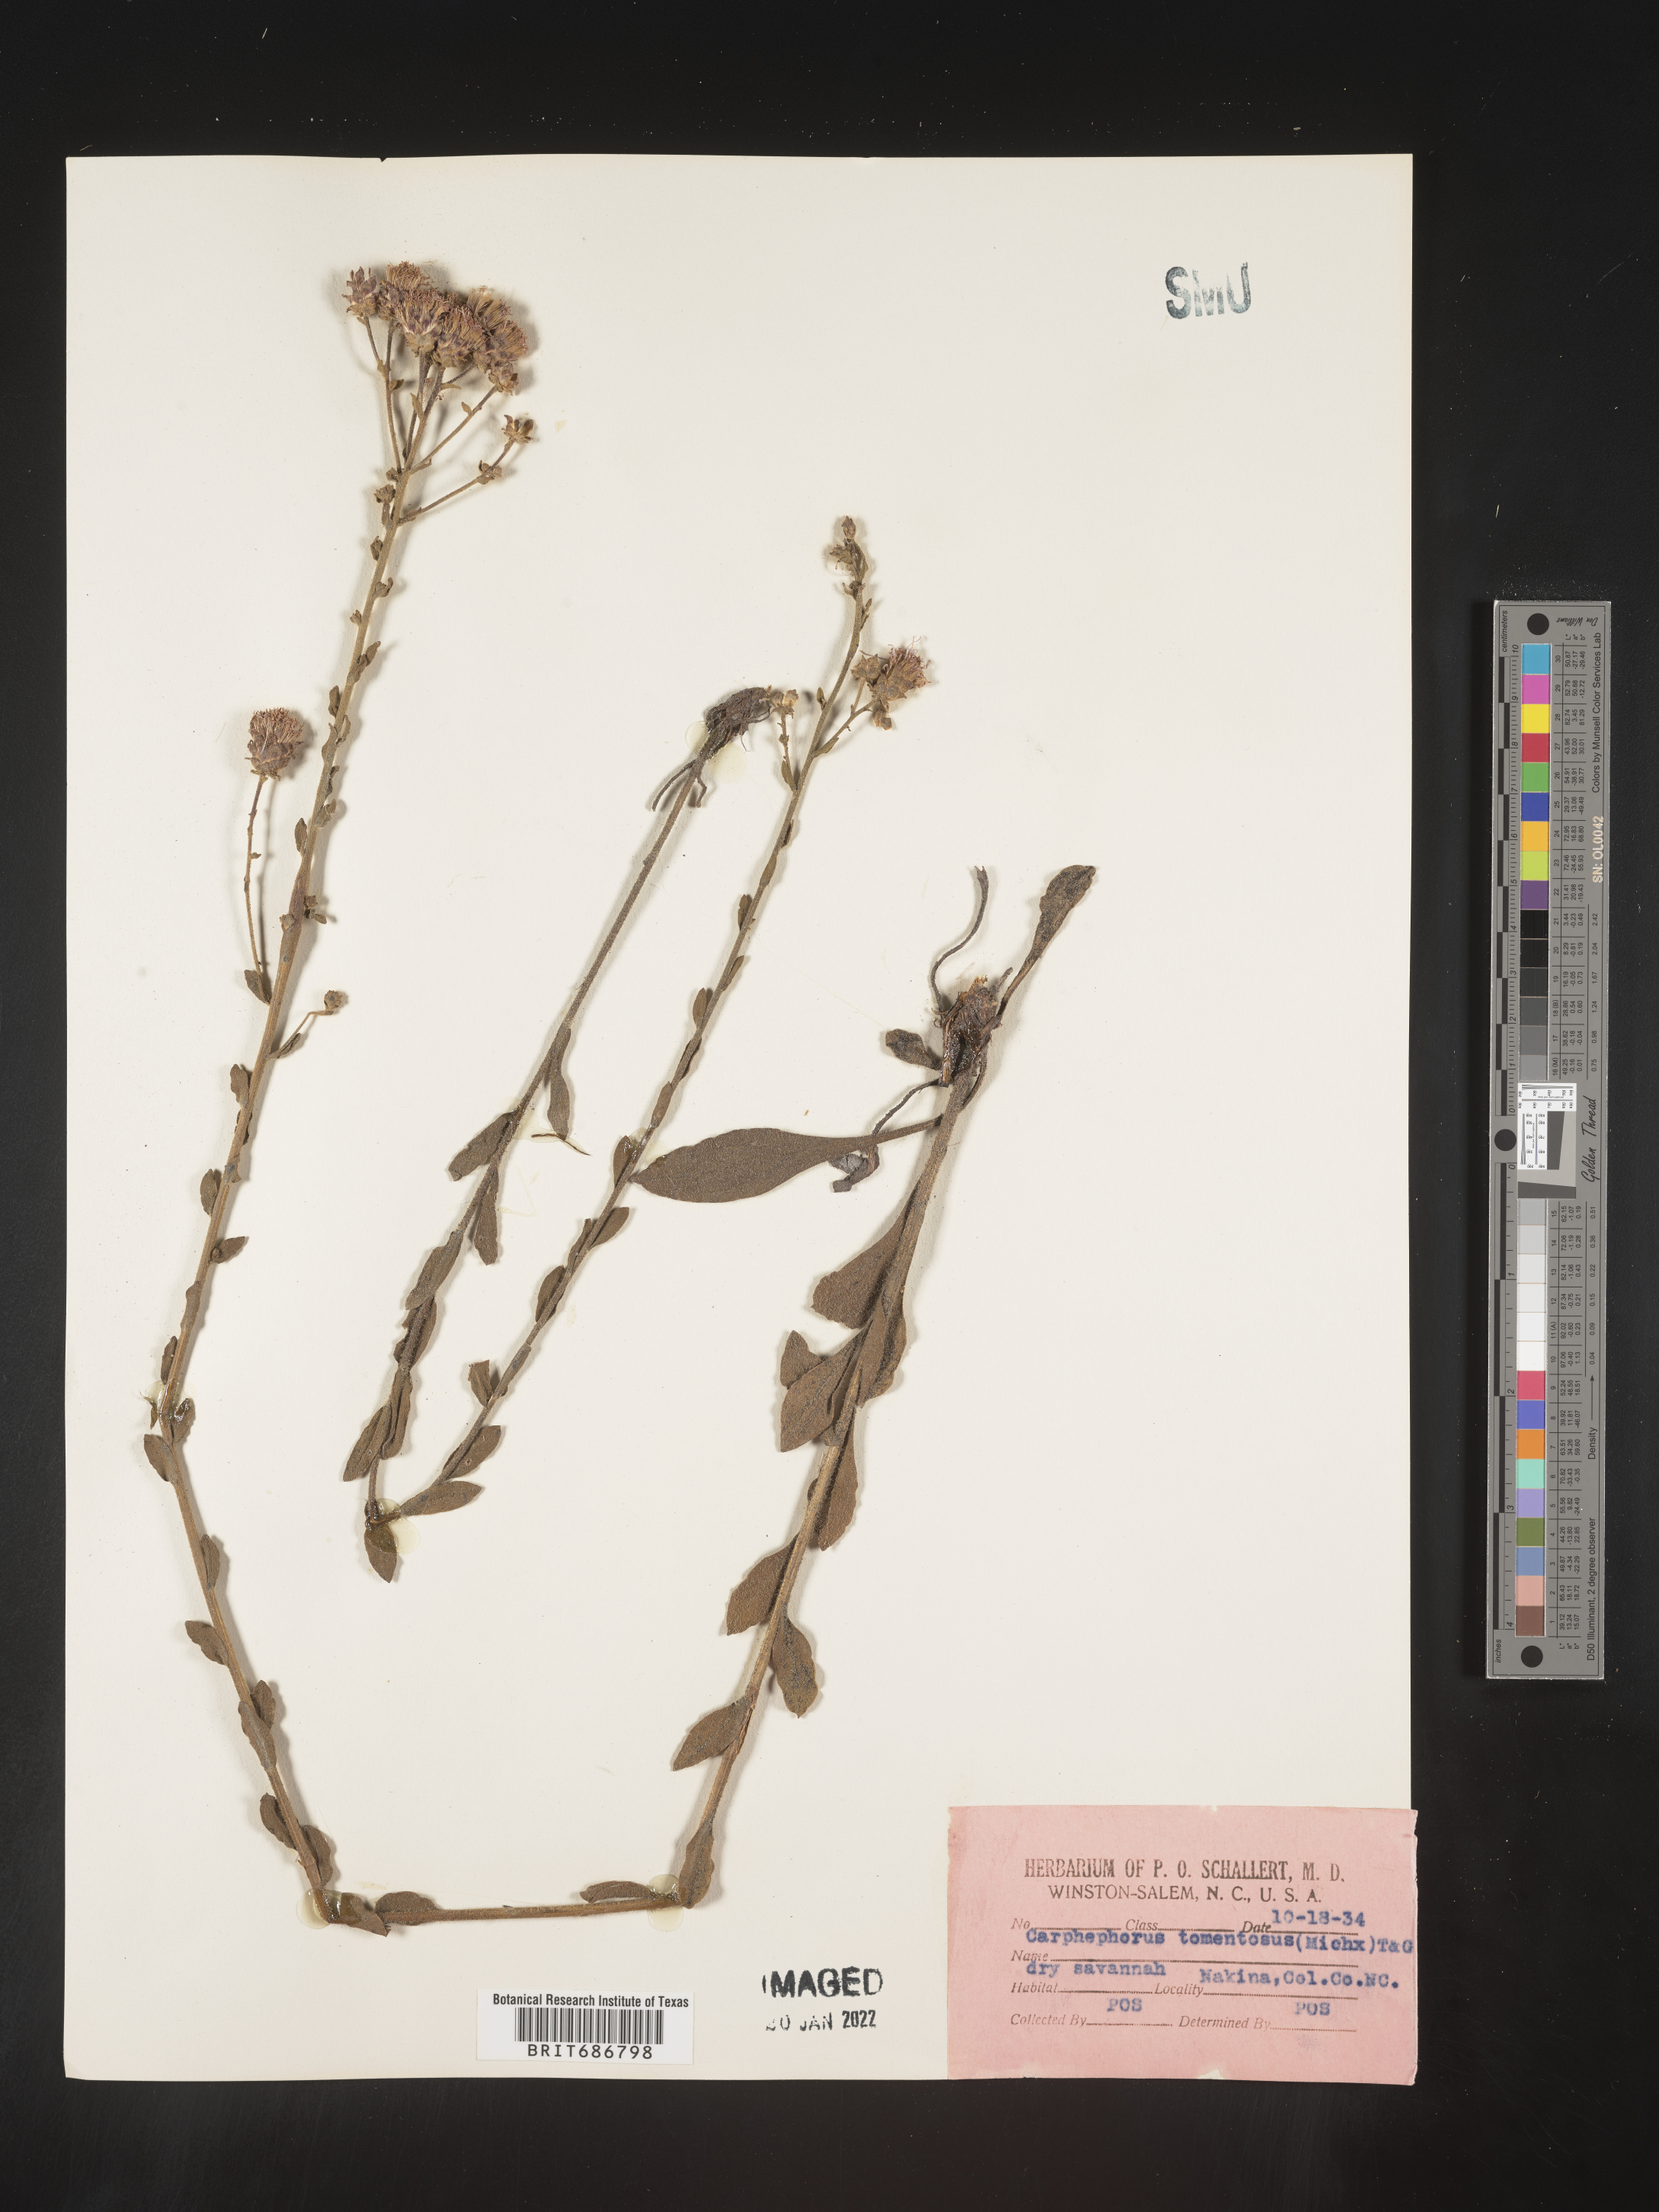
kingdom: Plantae
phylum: Tracheophyta
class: Magnoliopsida
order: Asterales
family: Asteraceae
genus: Carphephorus
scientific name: Carphephorus tomentosus
